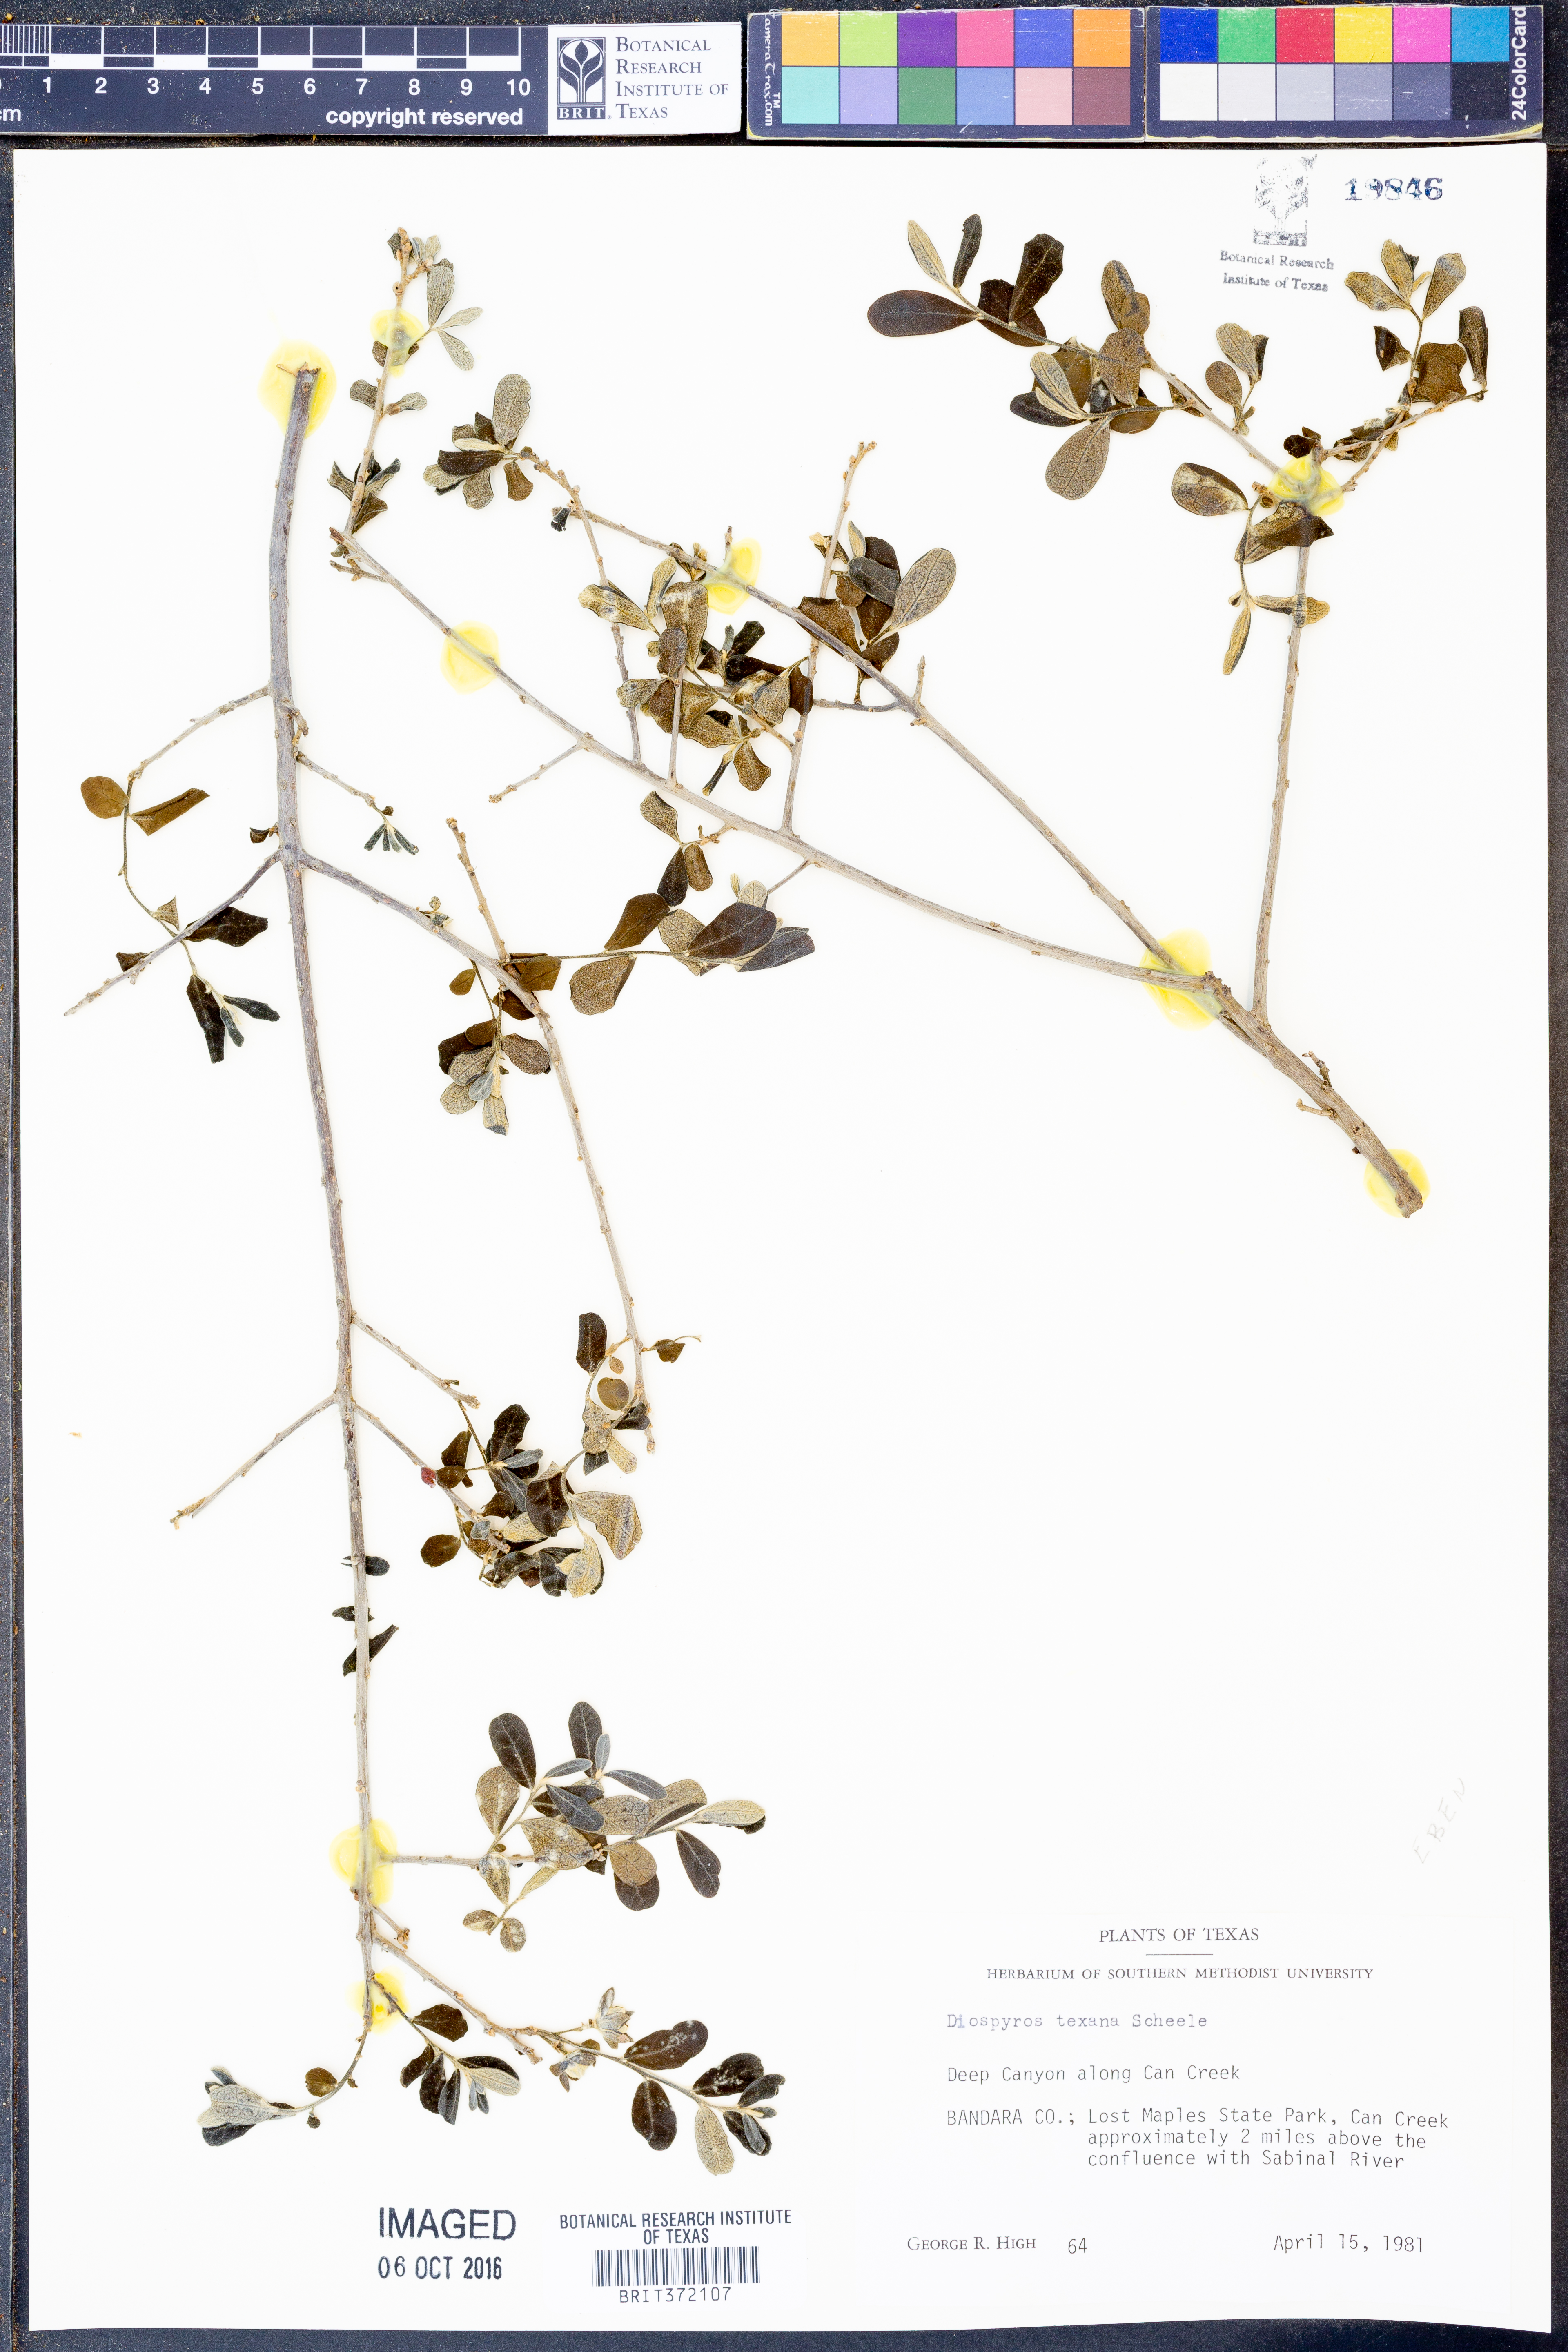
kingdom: Plantae
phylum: Tracheophyta
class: Magnoliopsida
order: Ericales
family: Ebenaceae
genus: Diospyros
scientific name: Diospyros texana
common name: Texas persimmon
